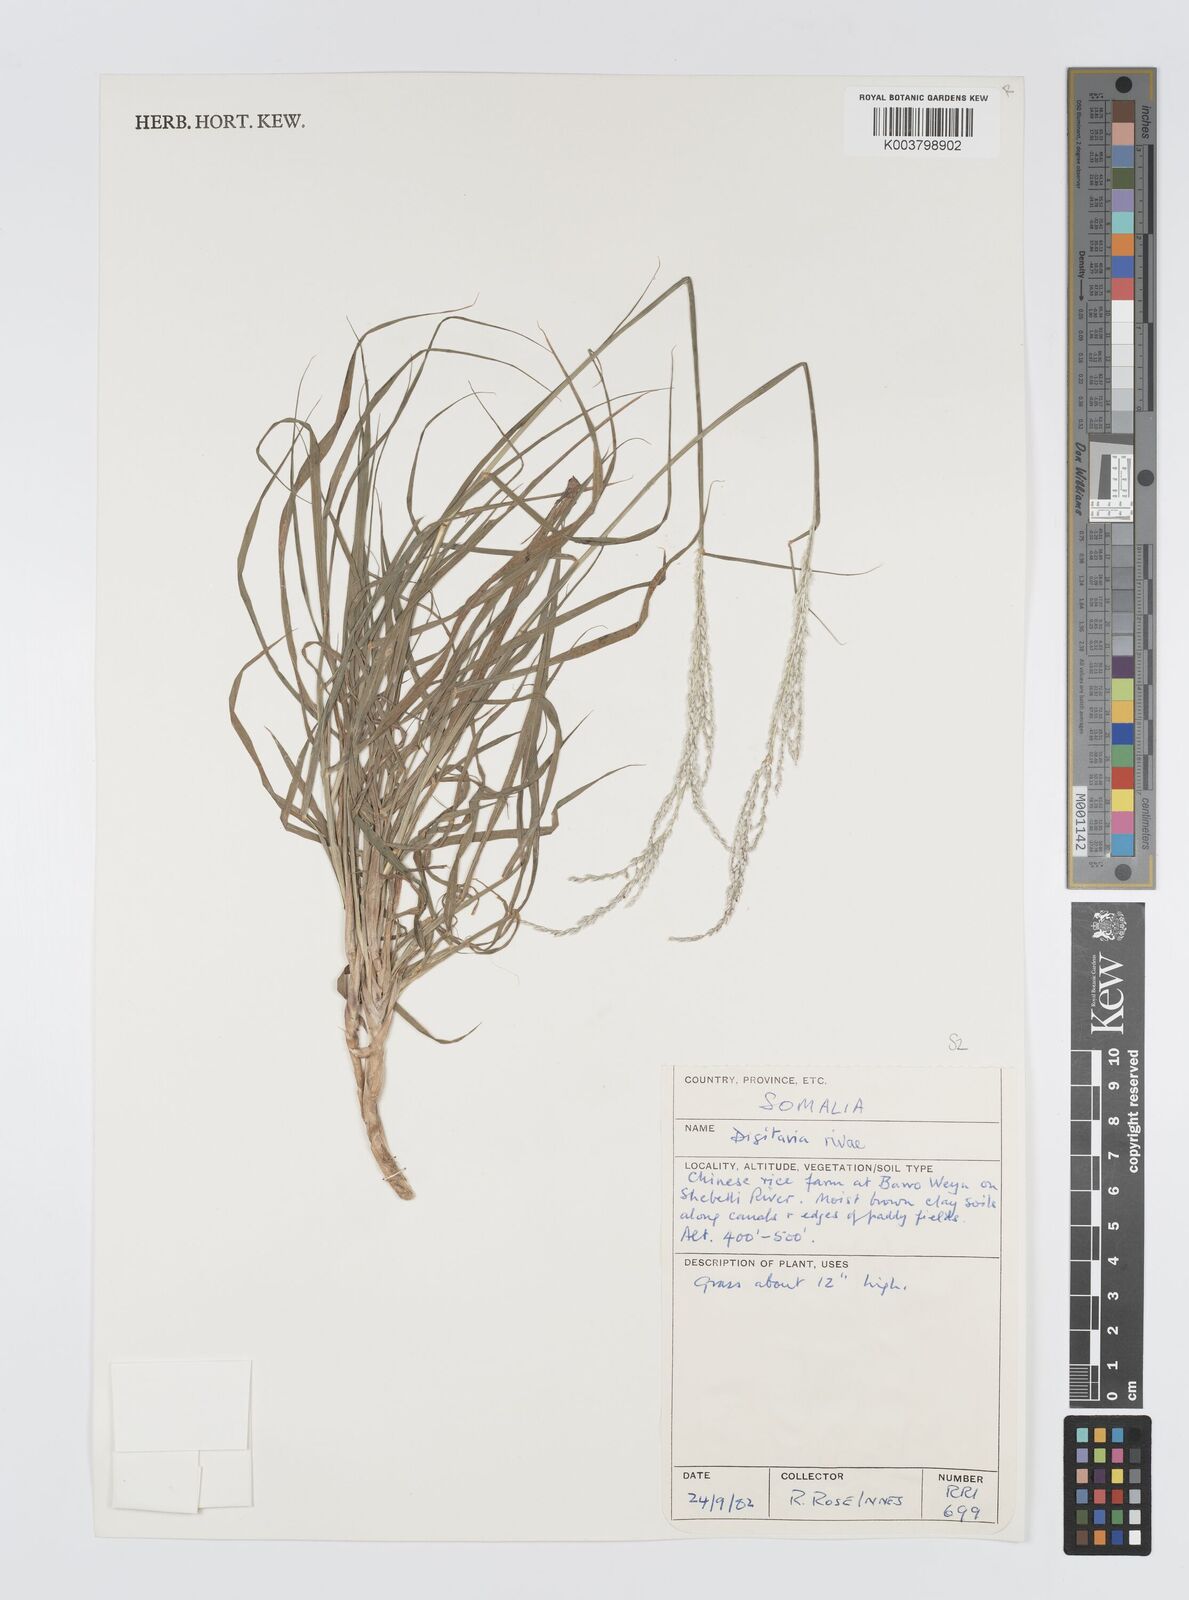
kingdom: Plantae
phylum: Tracheophyta
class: Liliopsida
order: Poales
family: Poaceae
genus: Digitaria
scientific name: Digitaria rivae
